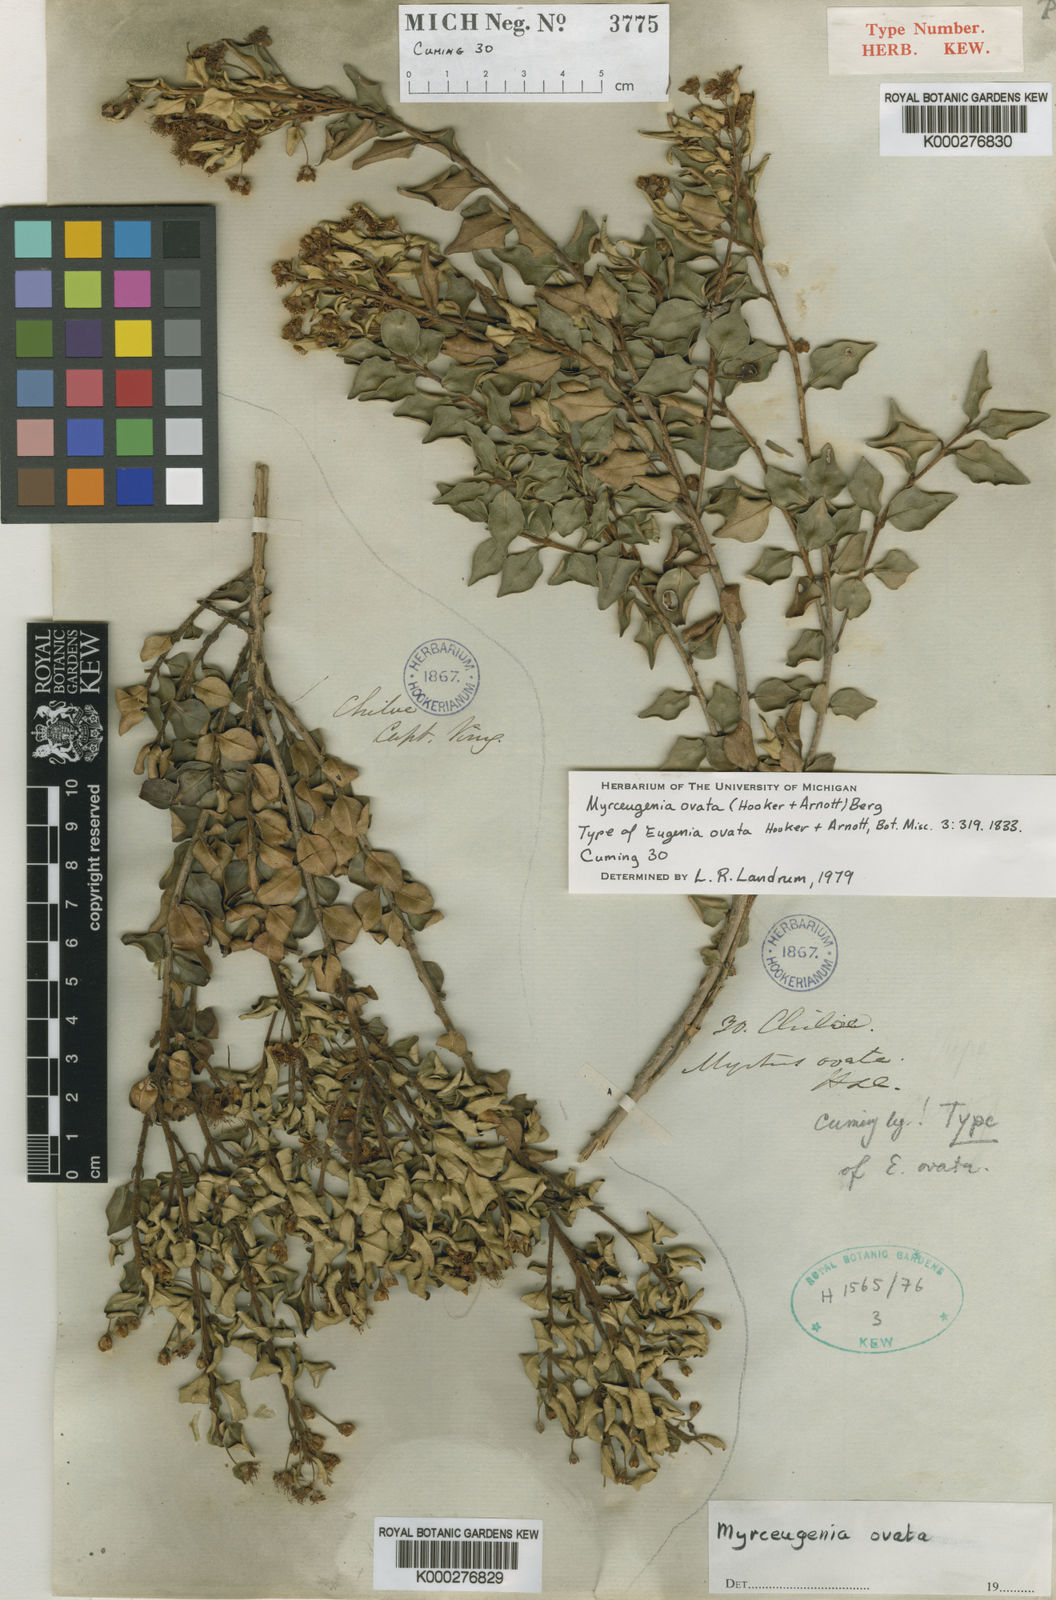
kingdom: Plantae
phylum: Tracheophyta
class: Magnoliopsida
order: Myrtales
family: Myrtaceae
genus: Myrceugenia
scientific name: Myrceugenia ovata
